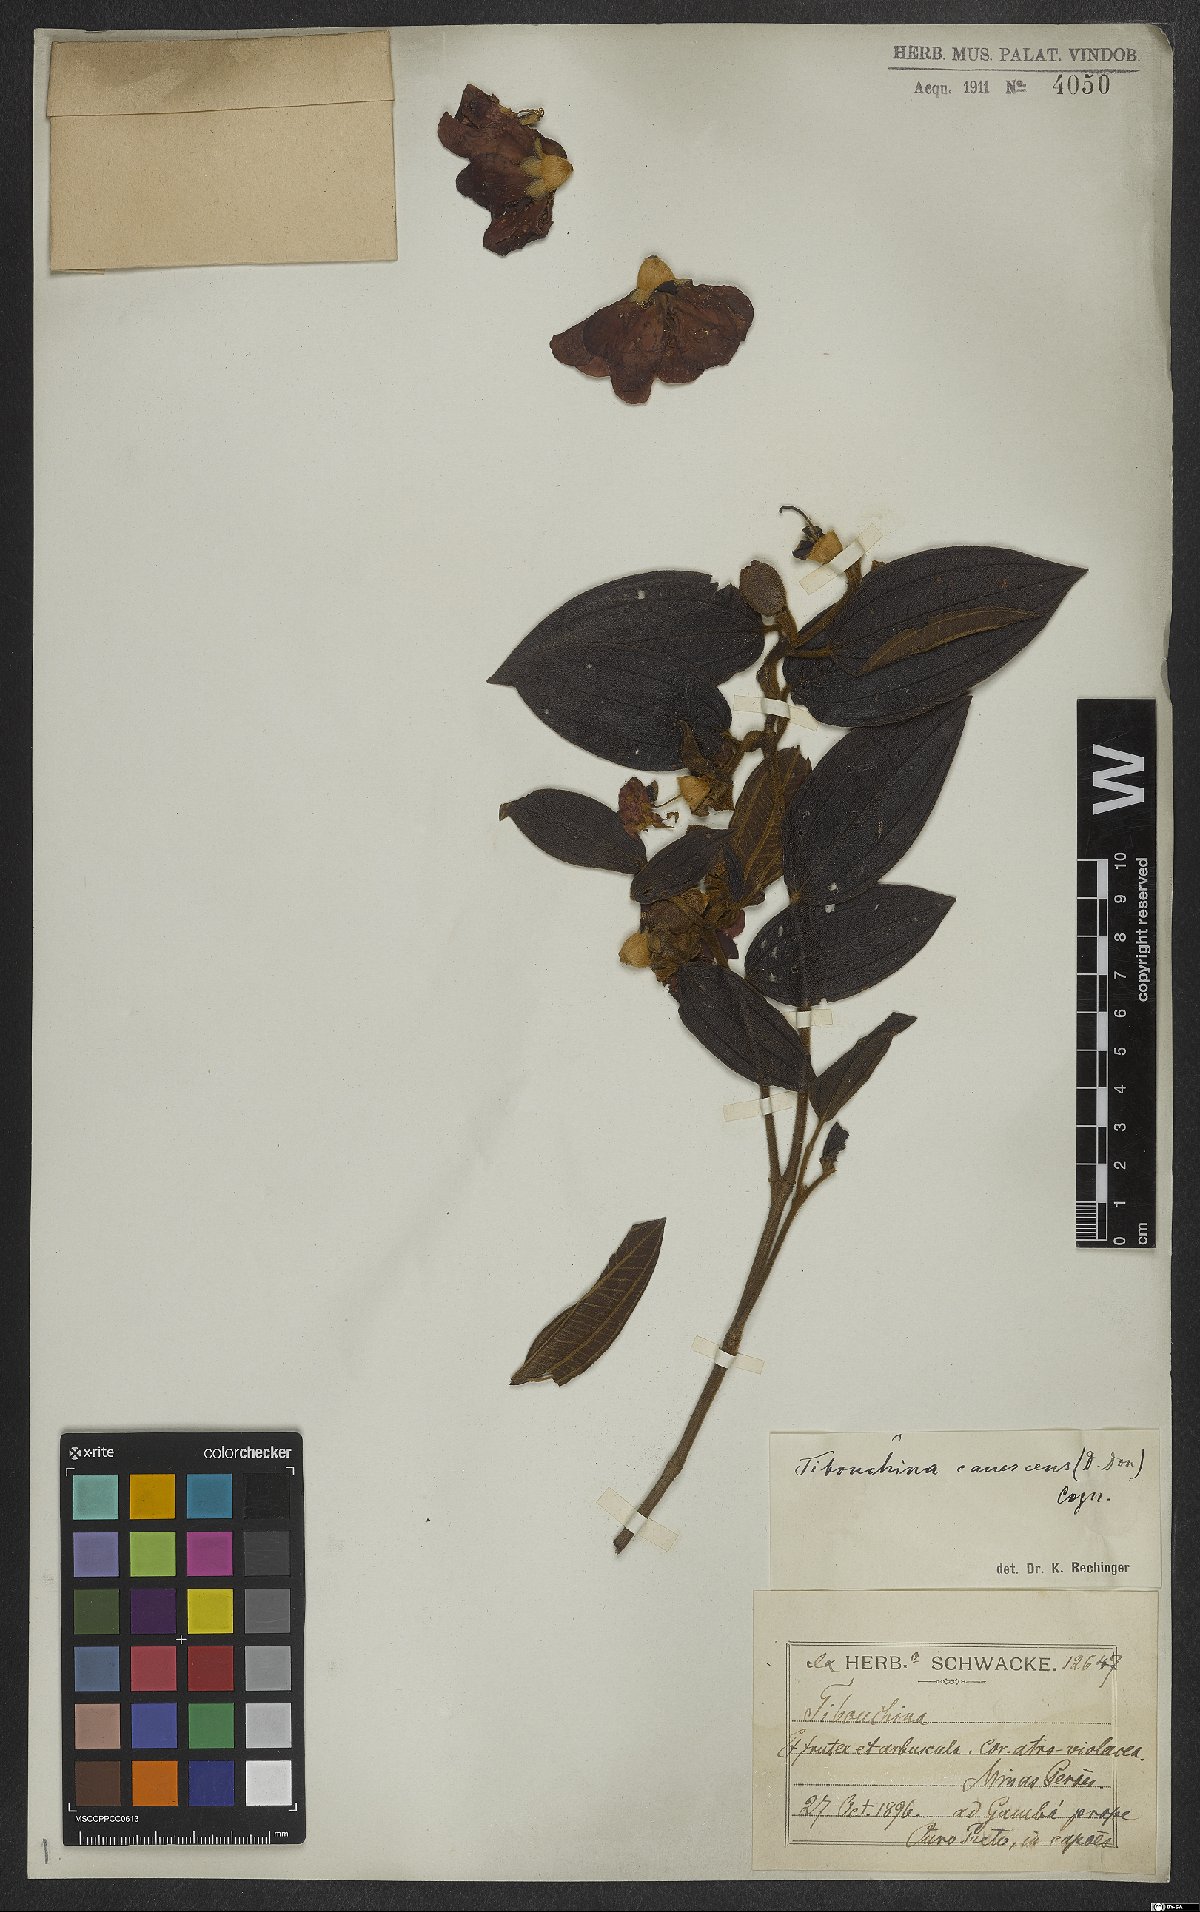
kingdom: Plantae
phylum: Tracheophyta
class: Magnoliopsida
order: Myrtales
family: Melastomataceae
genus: Pleroma
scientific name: Pleroma canescens
